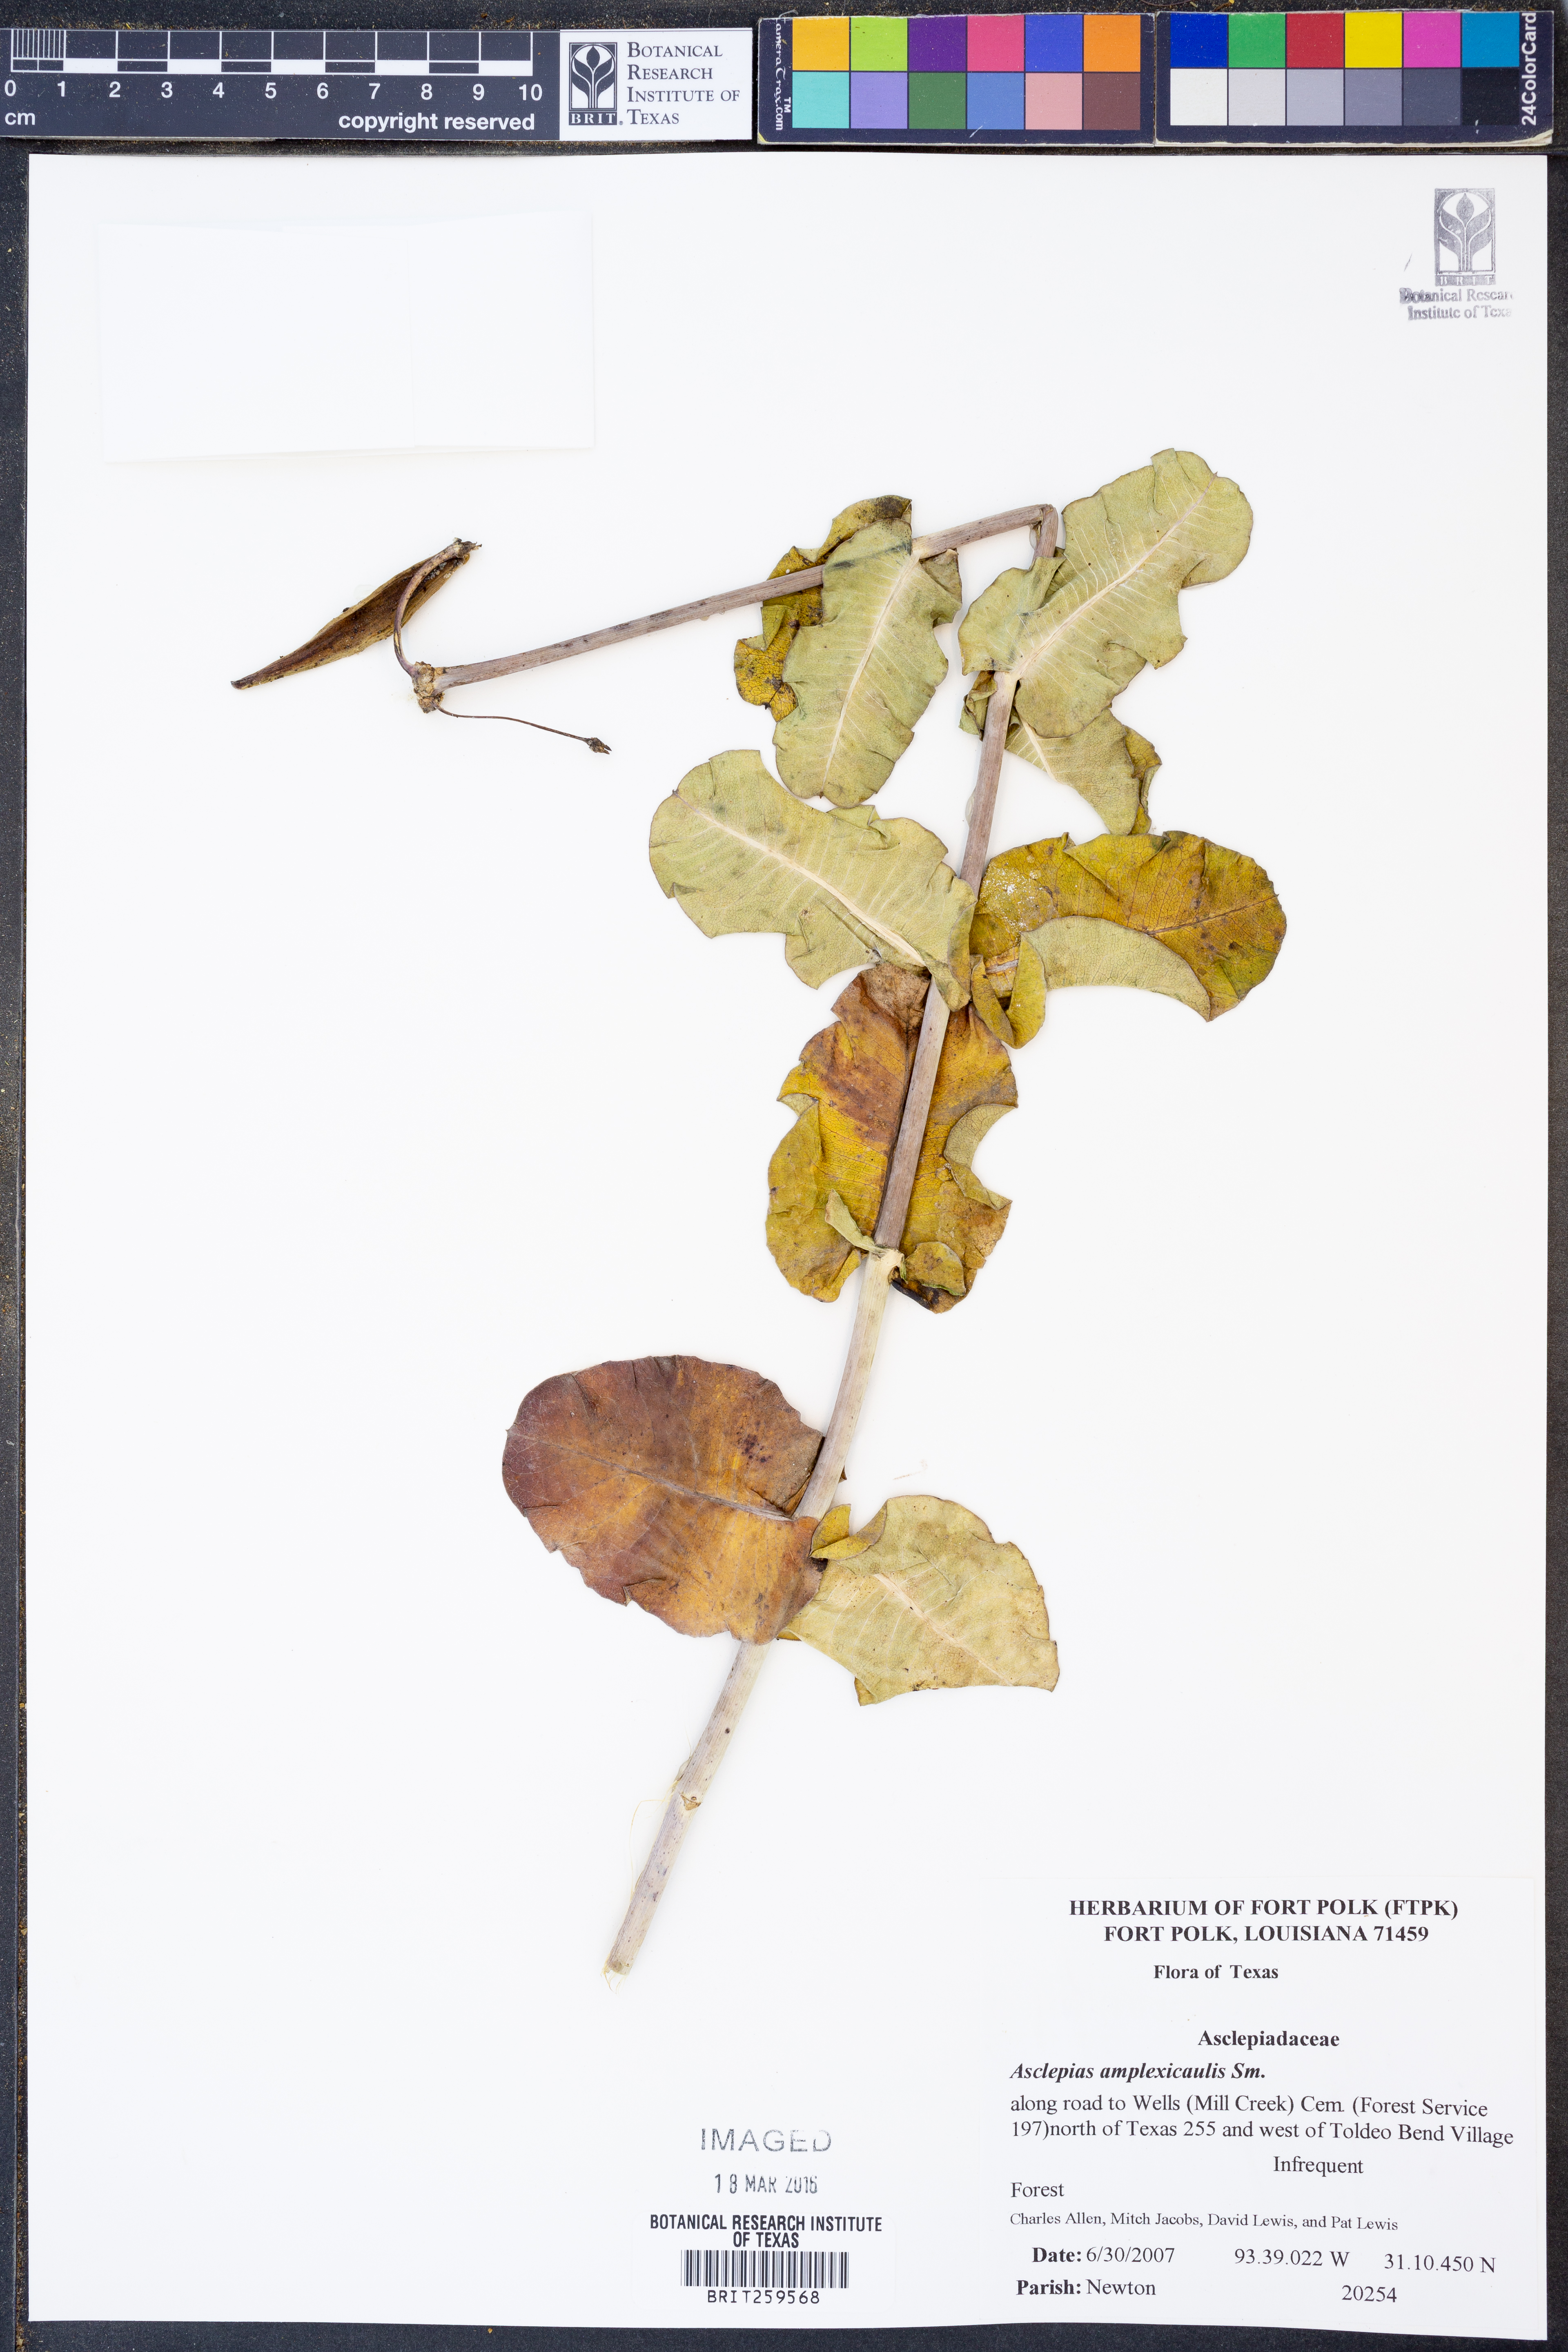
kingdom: Plantae
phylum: Tracheophyta
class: Magnoliopsida
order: Gentianales
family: Apocynaceae
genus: Asclepias
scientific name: Asclepias amplexicaulis
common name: Blunt-leaf milkweed
